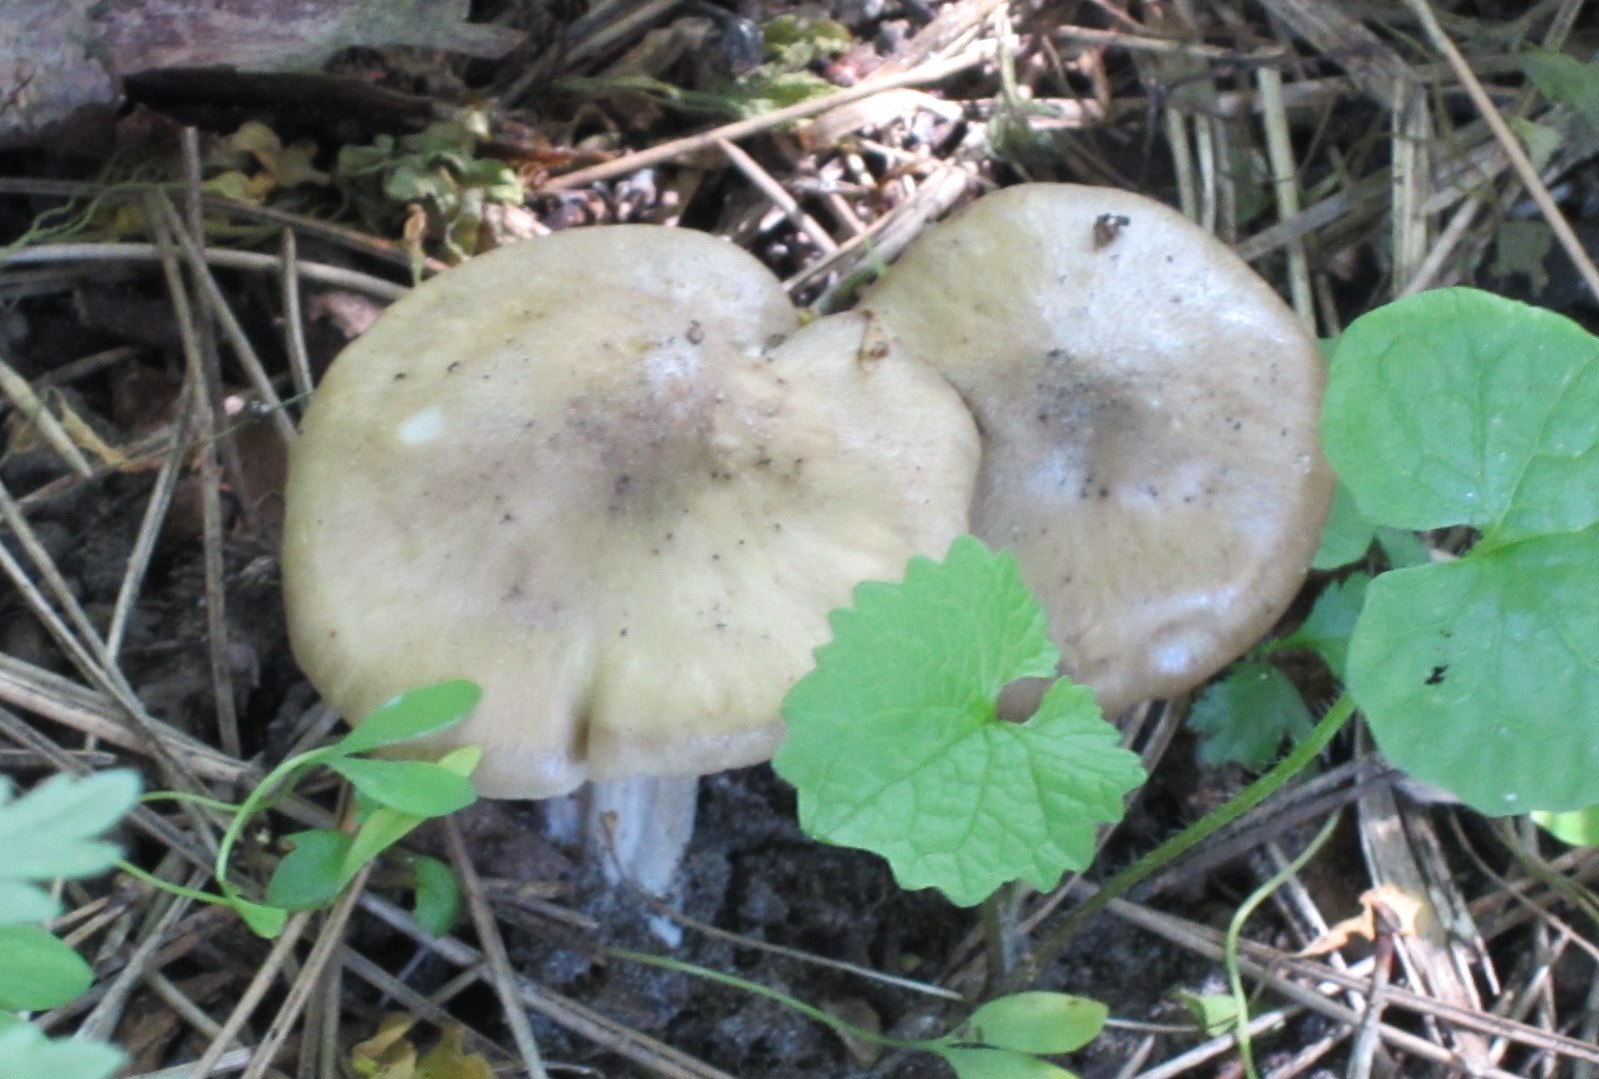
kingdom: Fungi
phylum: Basidiomycota
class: Agaricomycetes
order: Agaricales
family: Entolomataceae
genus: Entoloma
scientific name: Entoloma clypeatum
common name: flammet rødblad
